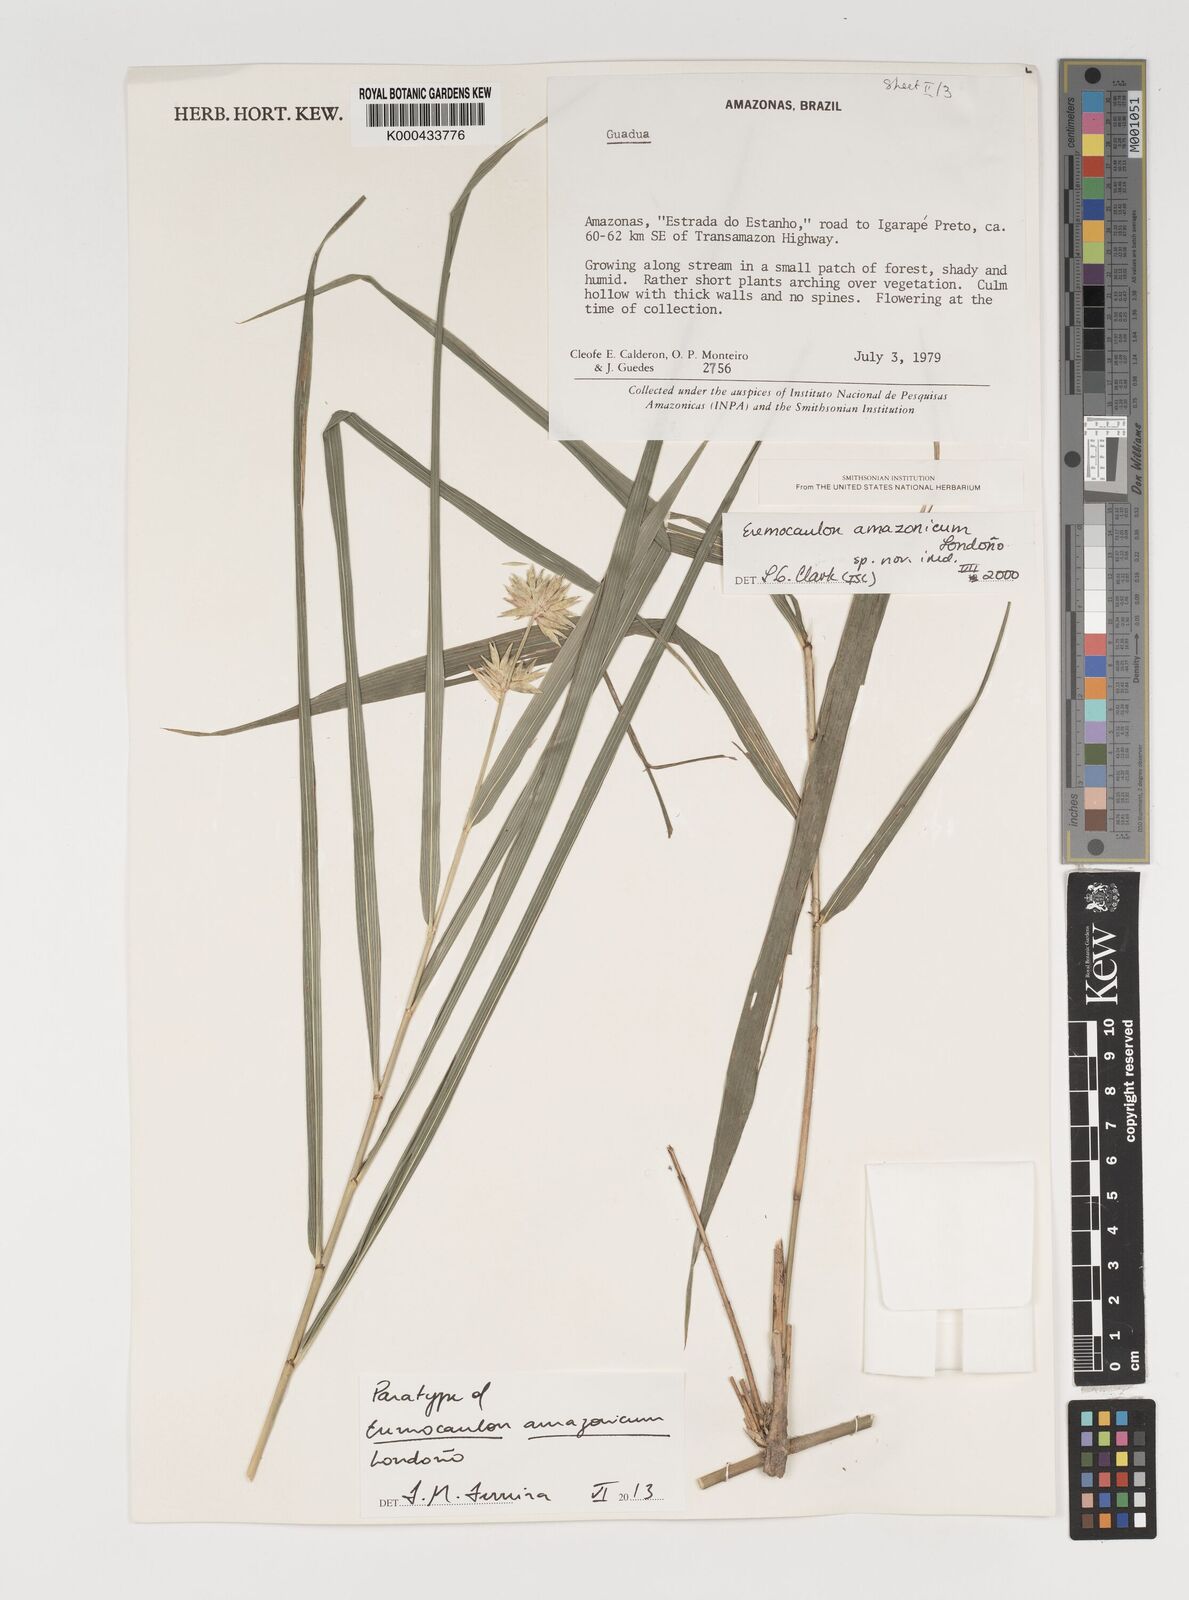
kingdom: Plantae
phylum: Tracheophyta
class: Liliopsida
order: Poales
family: Poaceae
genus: Eremocaulon
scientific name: Eremocaulon
